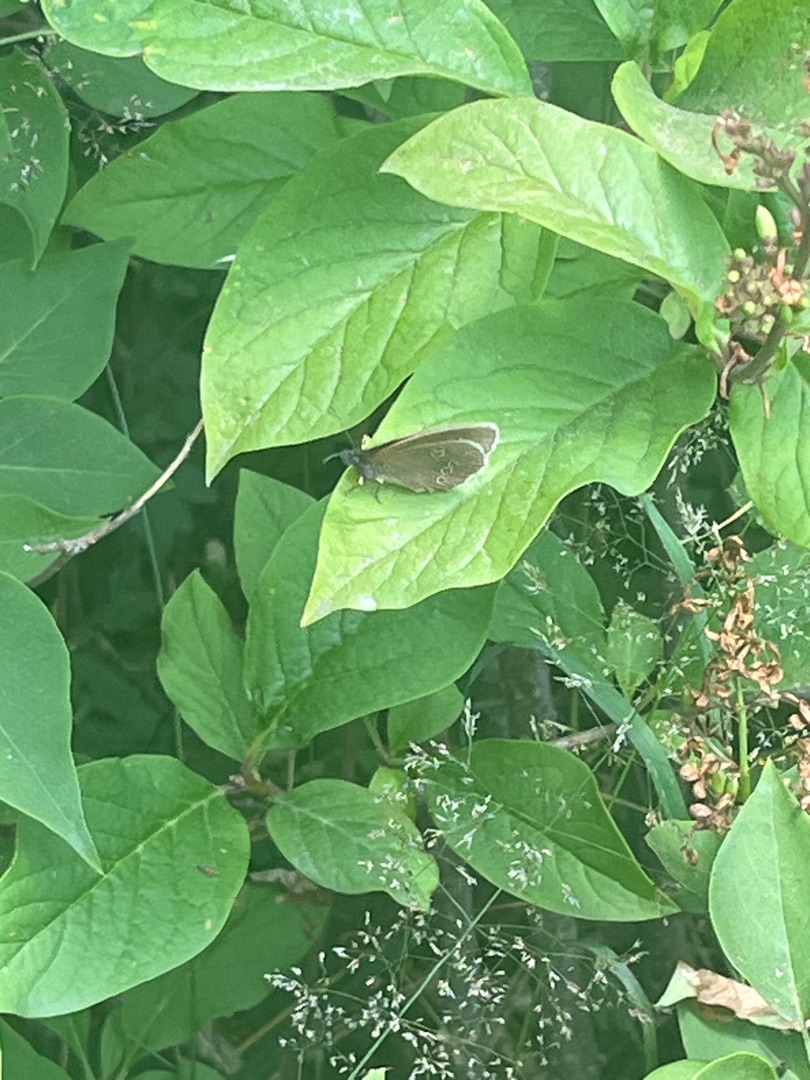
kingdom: Animalia
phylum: Arthropoda
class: Insecta
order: Lepidoptera
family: Nymphalidae
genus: Aphantopus
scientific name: Aphantopus hyperantus
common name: Engrandøje
